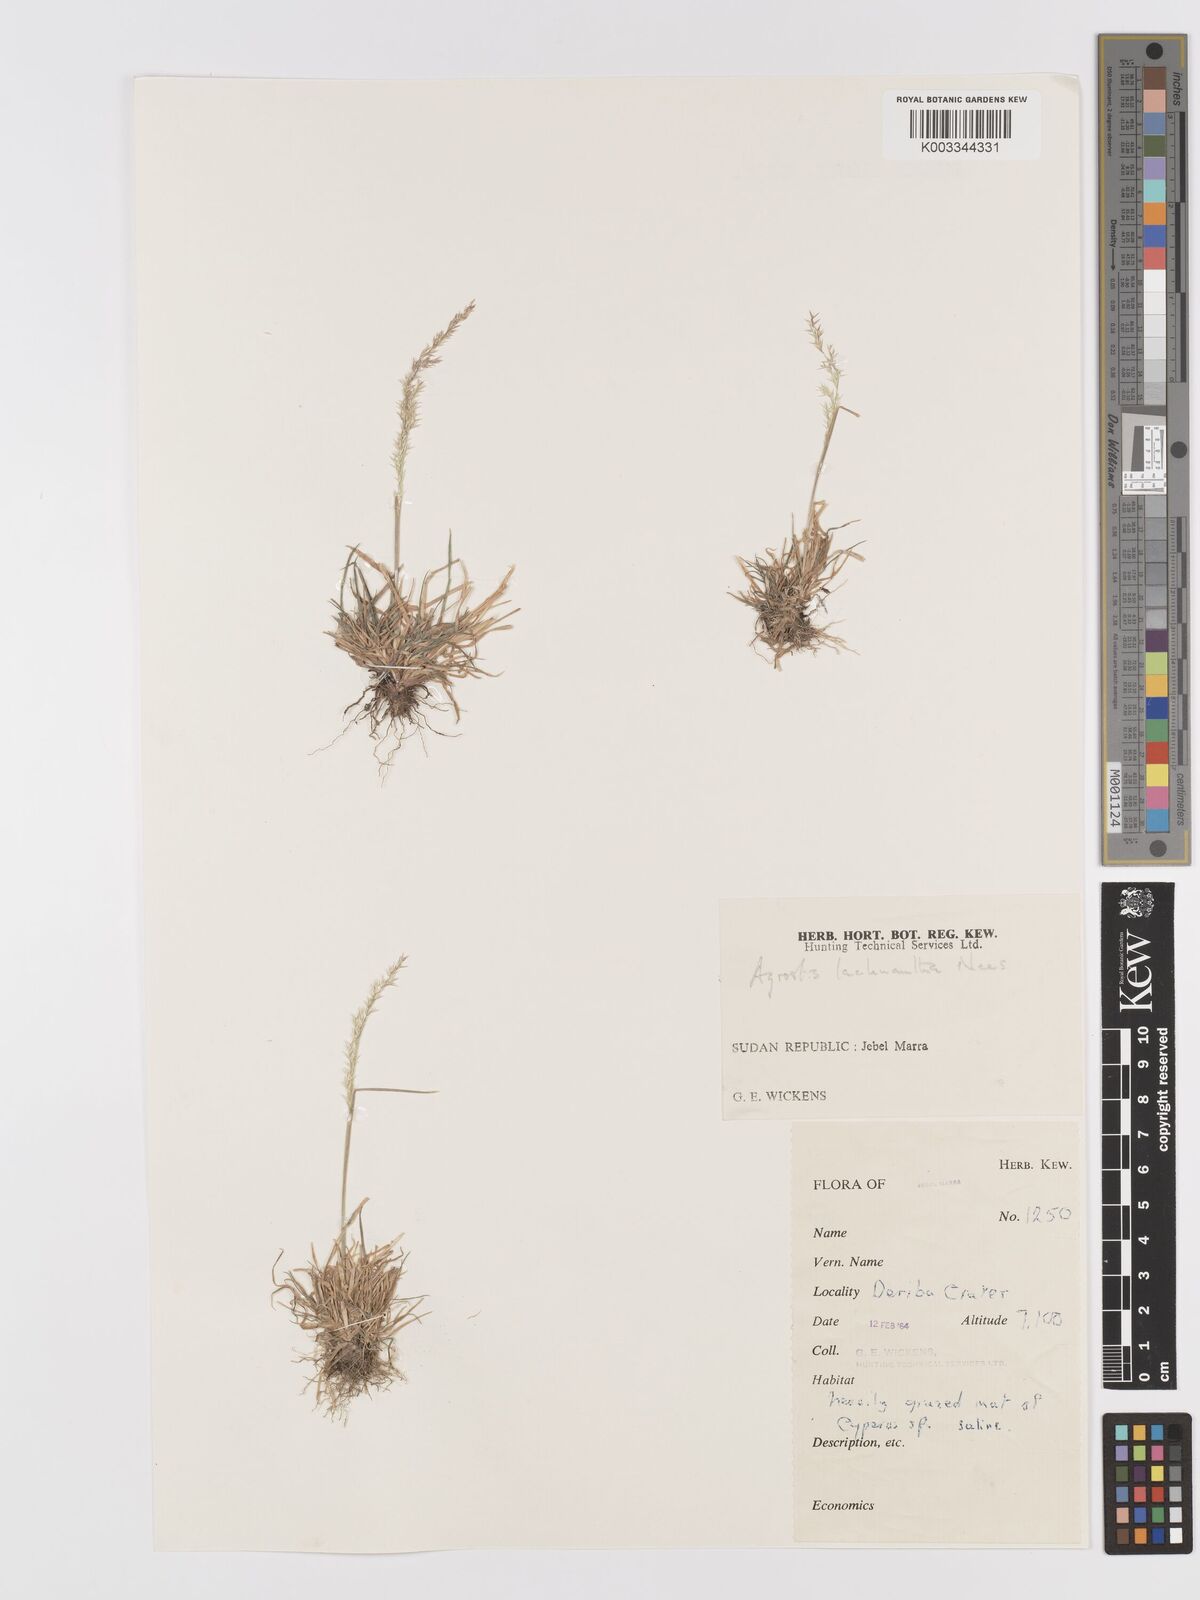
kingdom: Plantae
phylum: Tracheophyta
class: Liliopsida
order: Poales
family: Poaceae
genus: Lachnagrostis
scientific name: Lachnagrostis lachnantha
